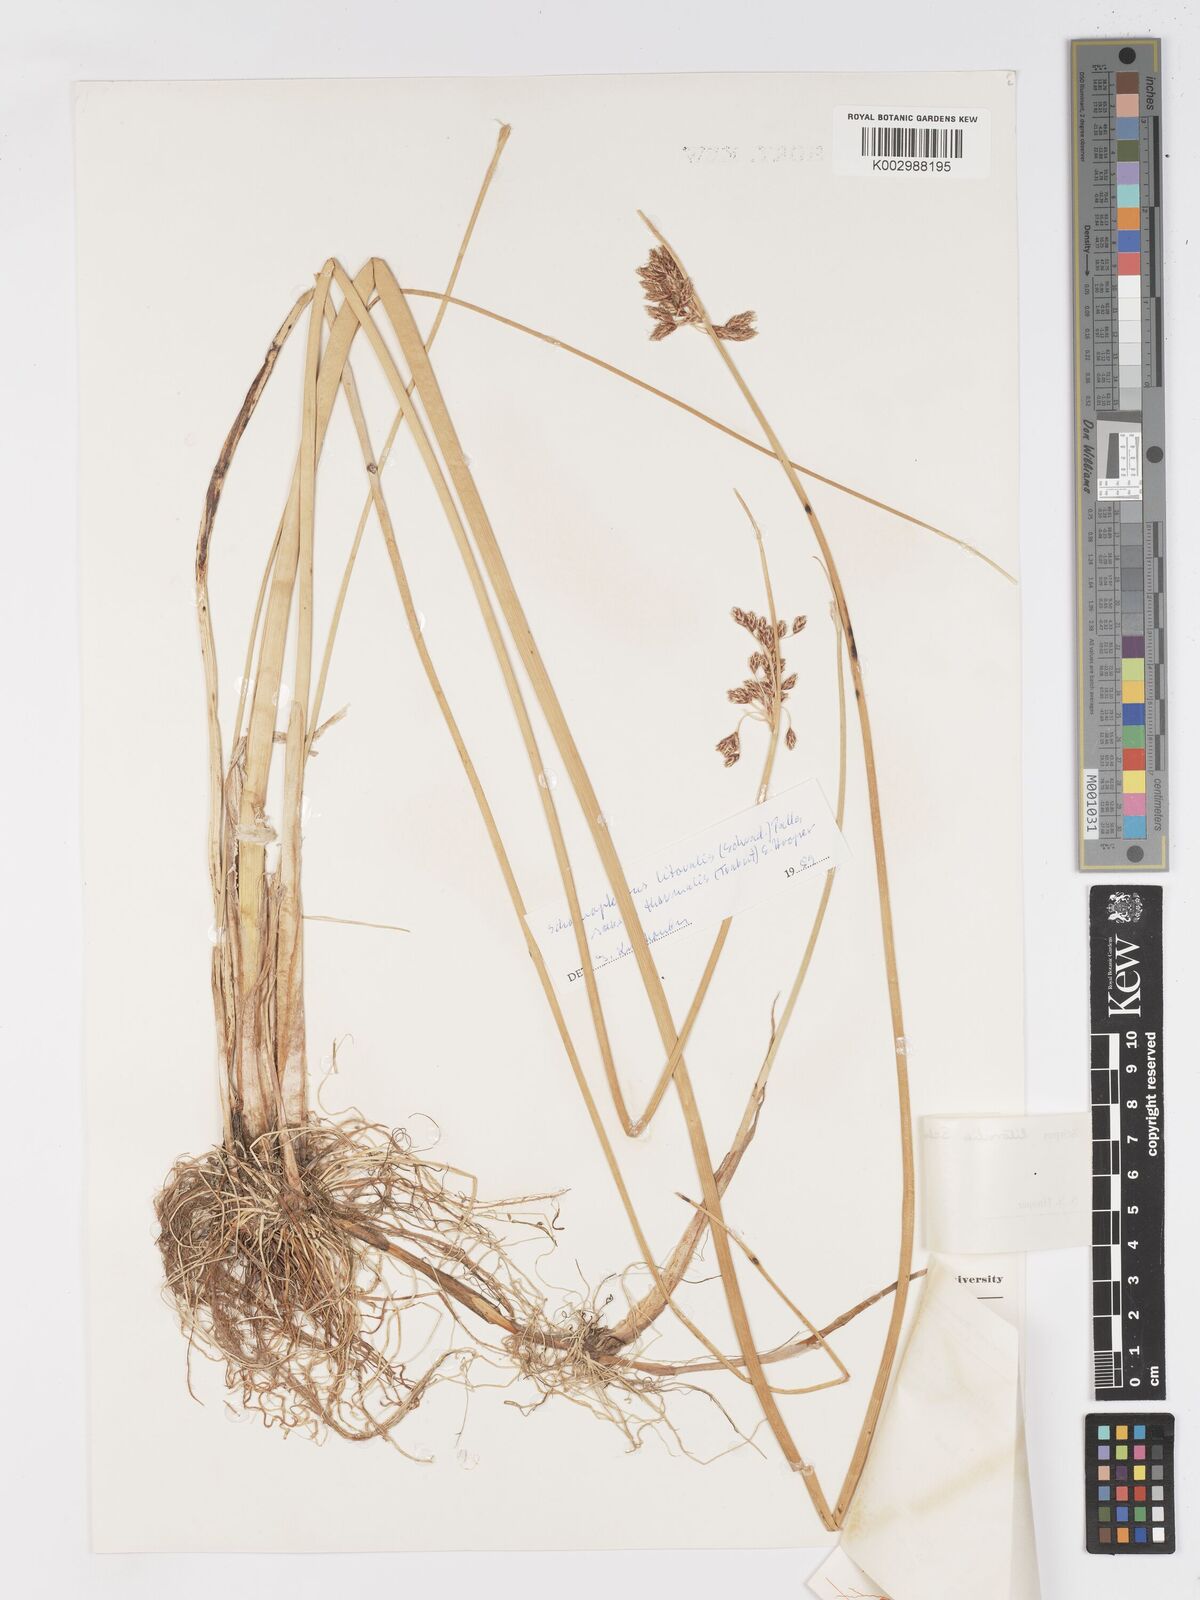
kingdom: Plantae
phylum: Tracheophyta
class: Liliopsida
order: Poales
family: Cyperaceae
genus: Schoenoplectus
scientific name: Schoenoplectus litoralis
